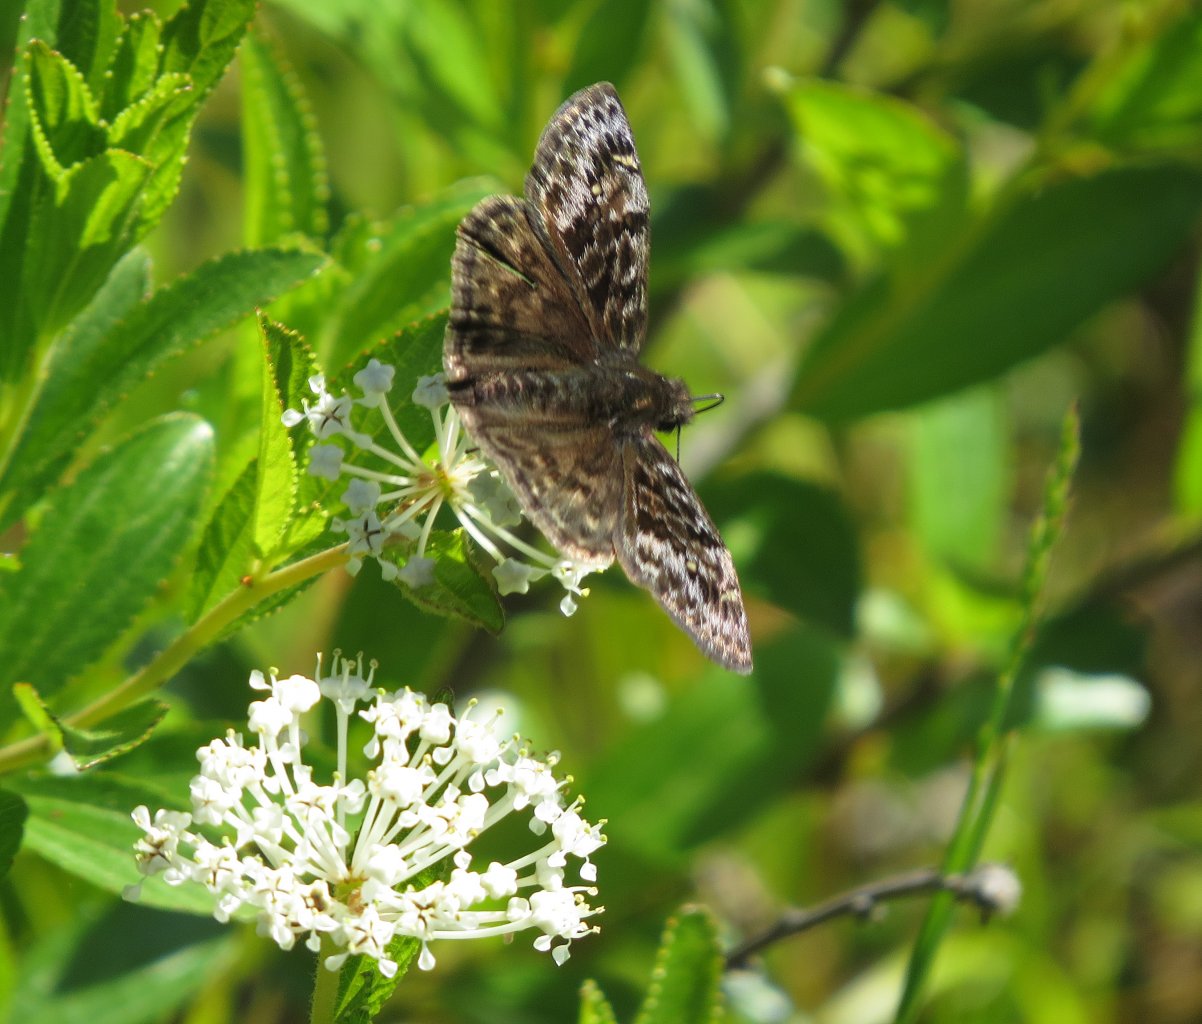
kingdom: Animalia
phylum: Arthropoda
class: Insecta
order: Lepidoptera
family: Hesperiidae
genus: Erynnis
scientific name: Erynnis martialis
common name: Mottled Duskywing
